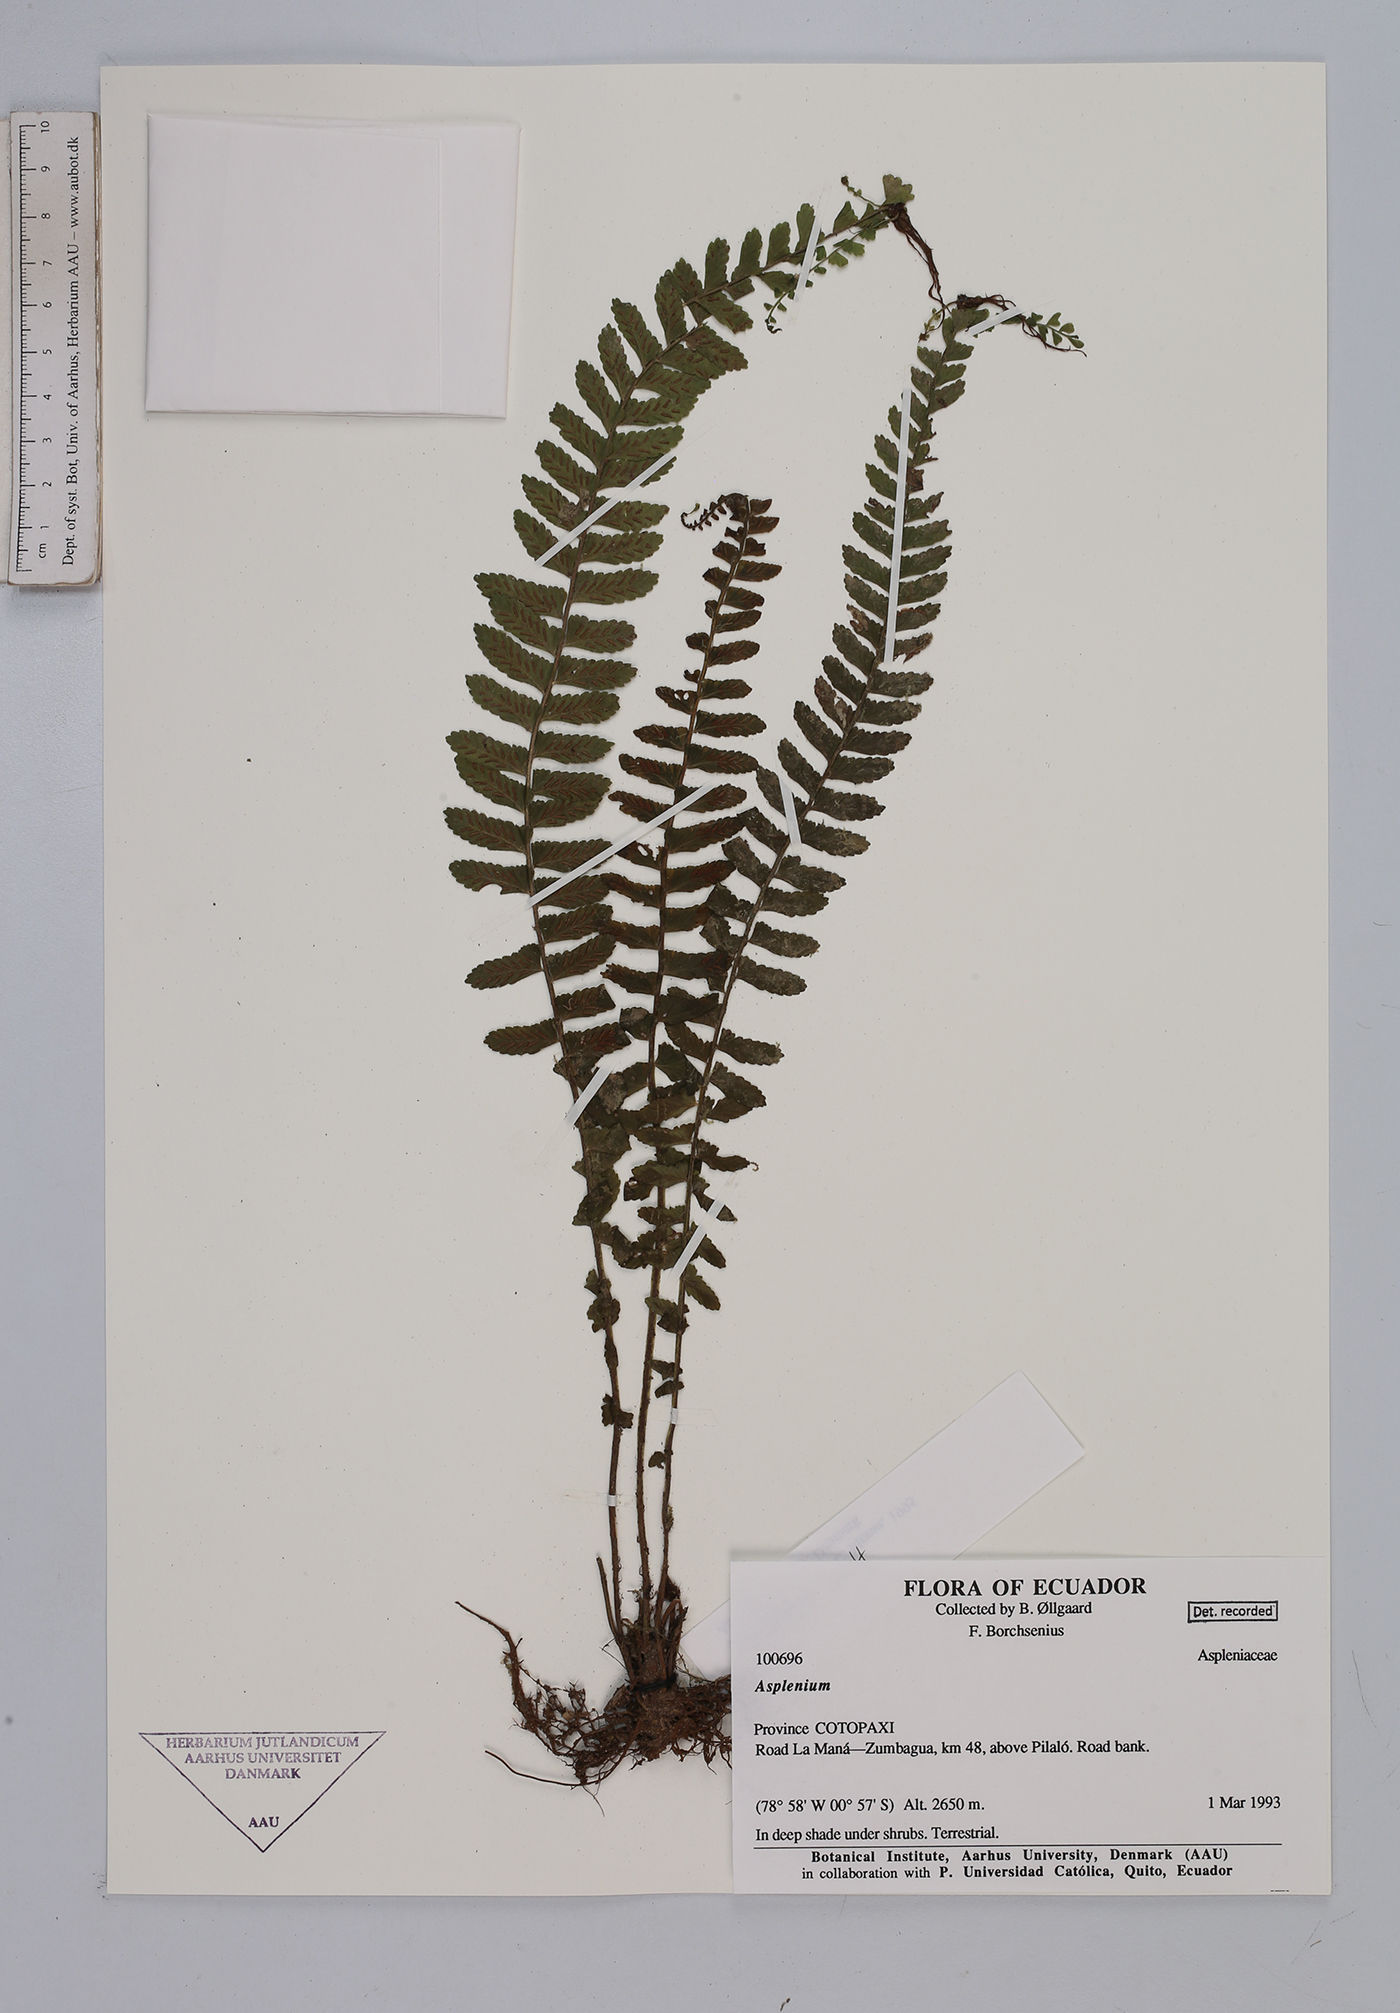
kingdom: Plantae
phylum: Tracheophyta
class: Polypodiopsida
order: Polypodiales
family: Aspleniaceae
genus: Asplenium
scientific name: Asplenium
